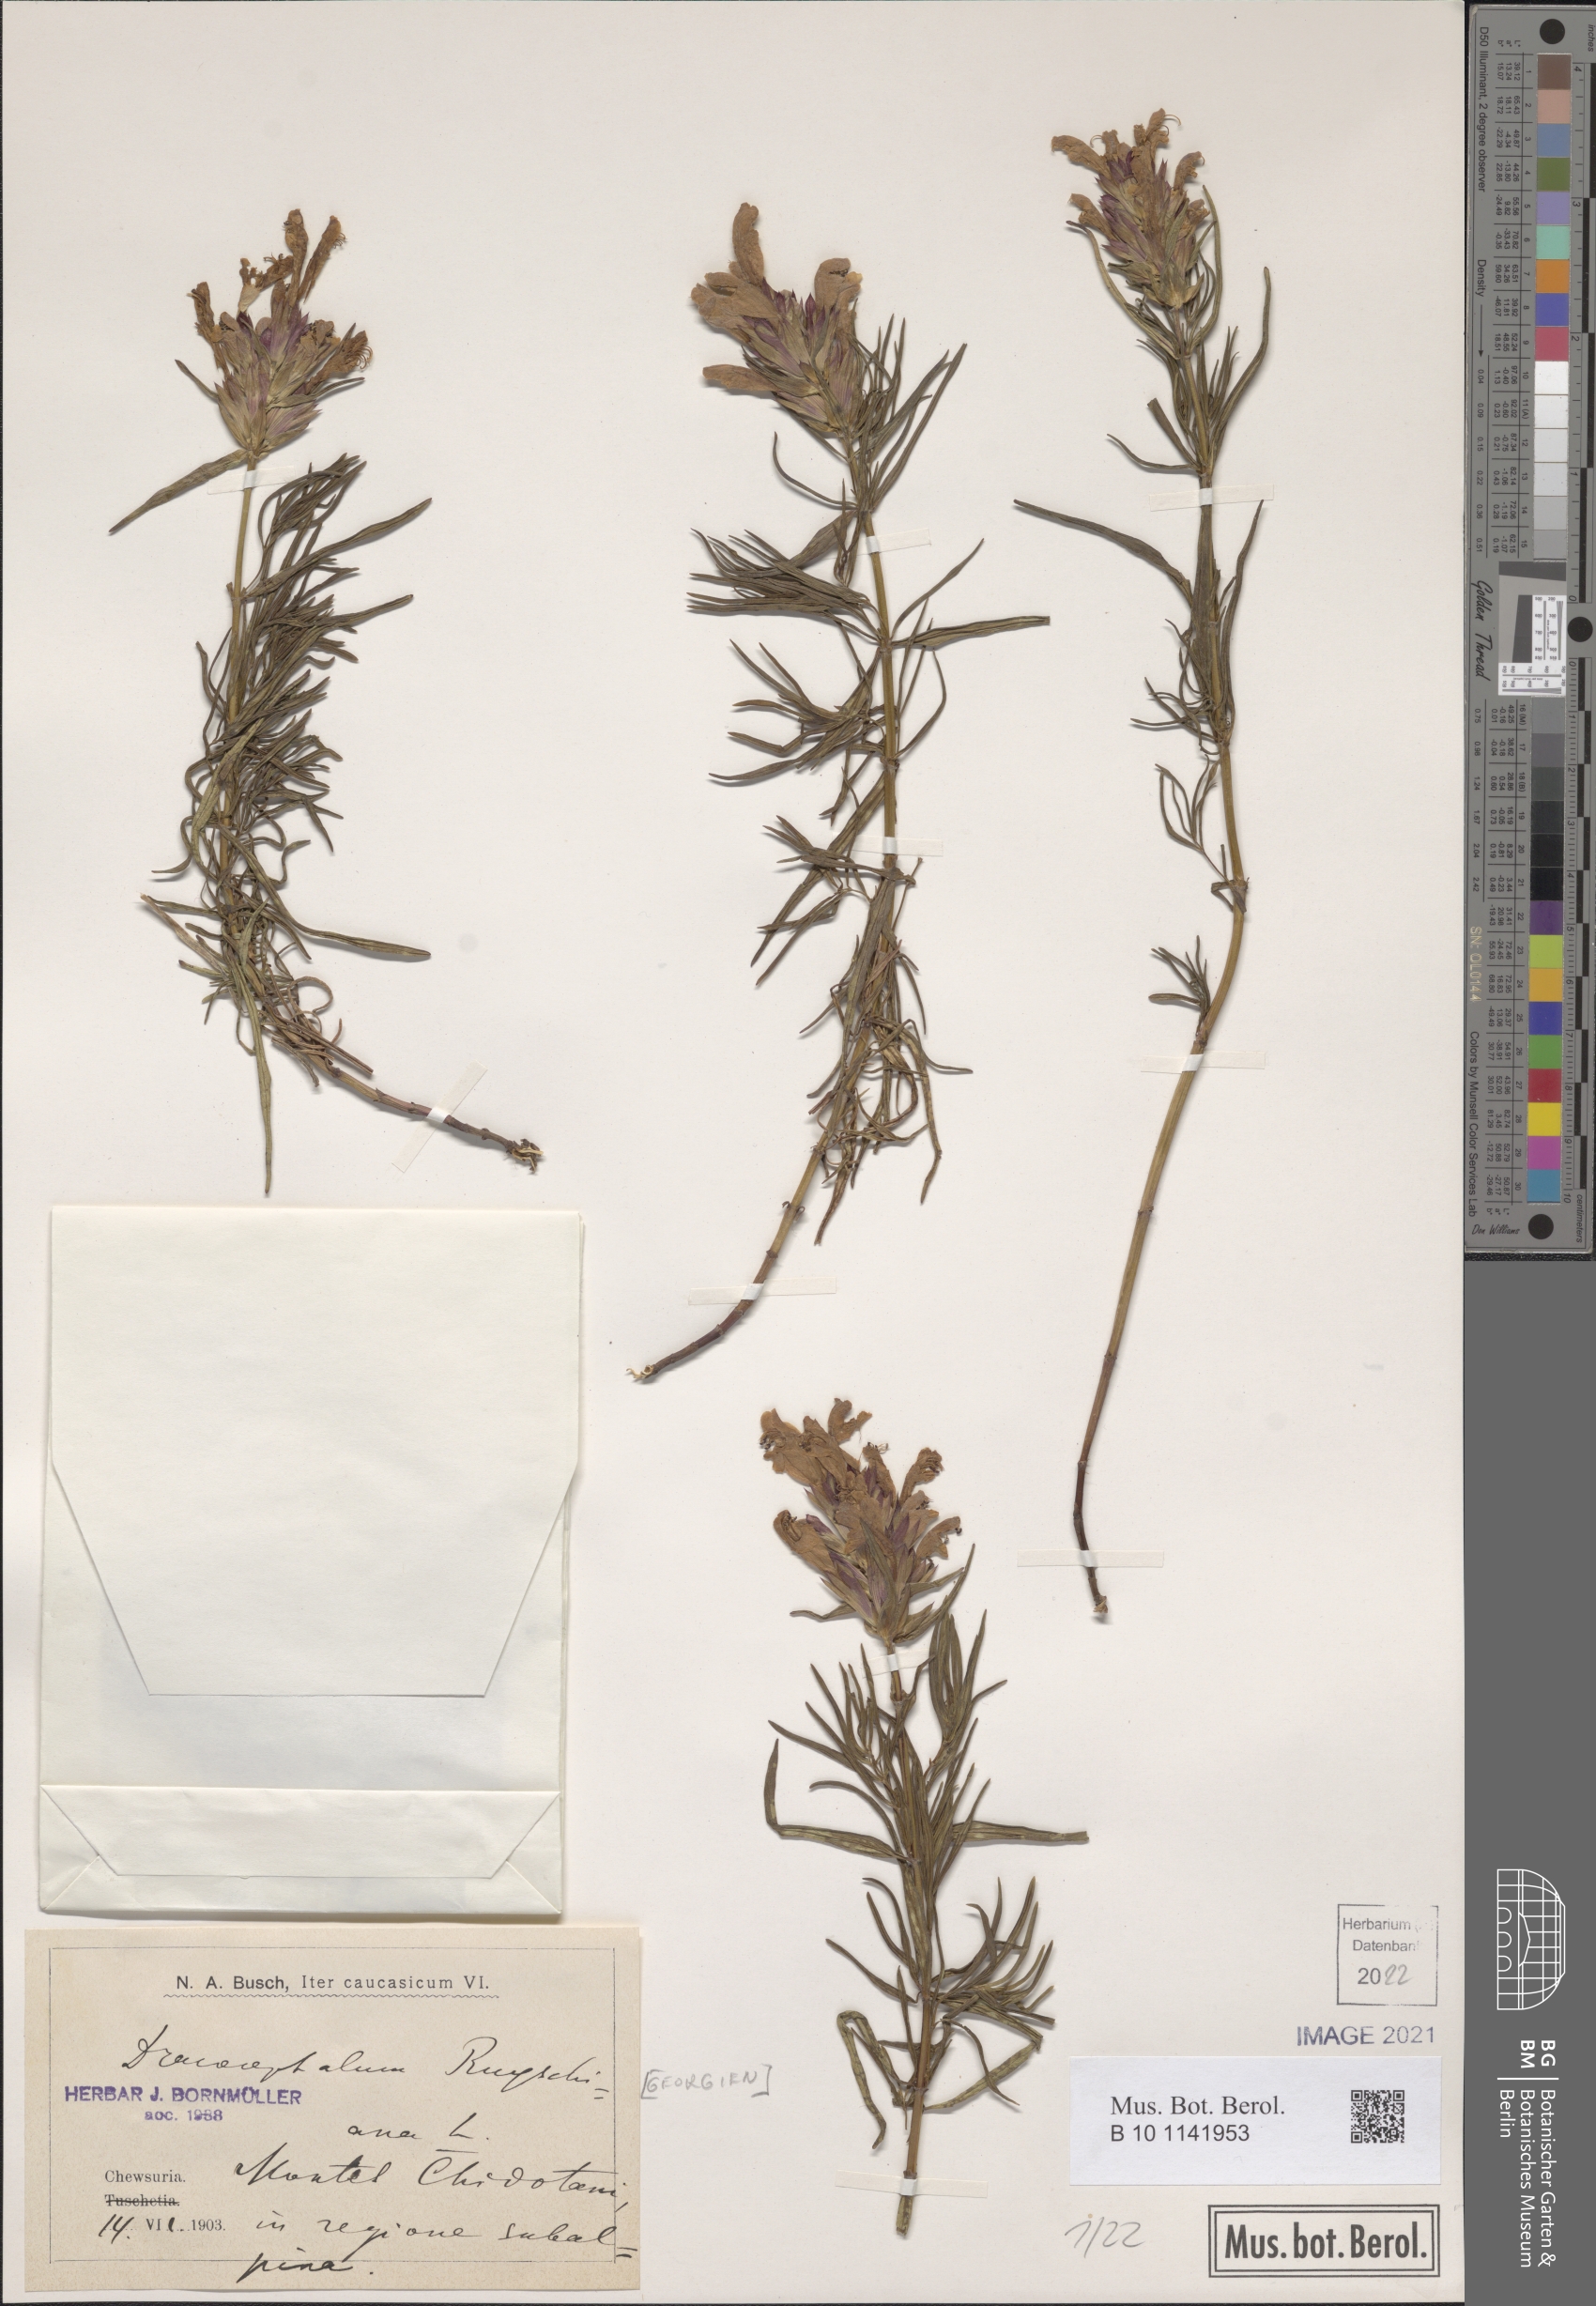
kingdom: Plantae
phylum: Tracheophyta
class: Magnoliopsida
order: Lamiales
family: Lamiaceae
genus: Dracocephalum
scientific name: Dracocephalum ruyschiana
